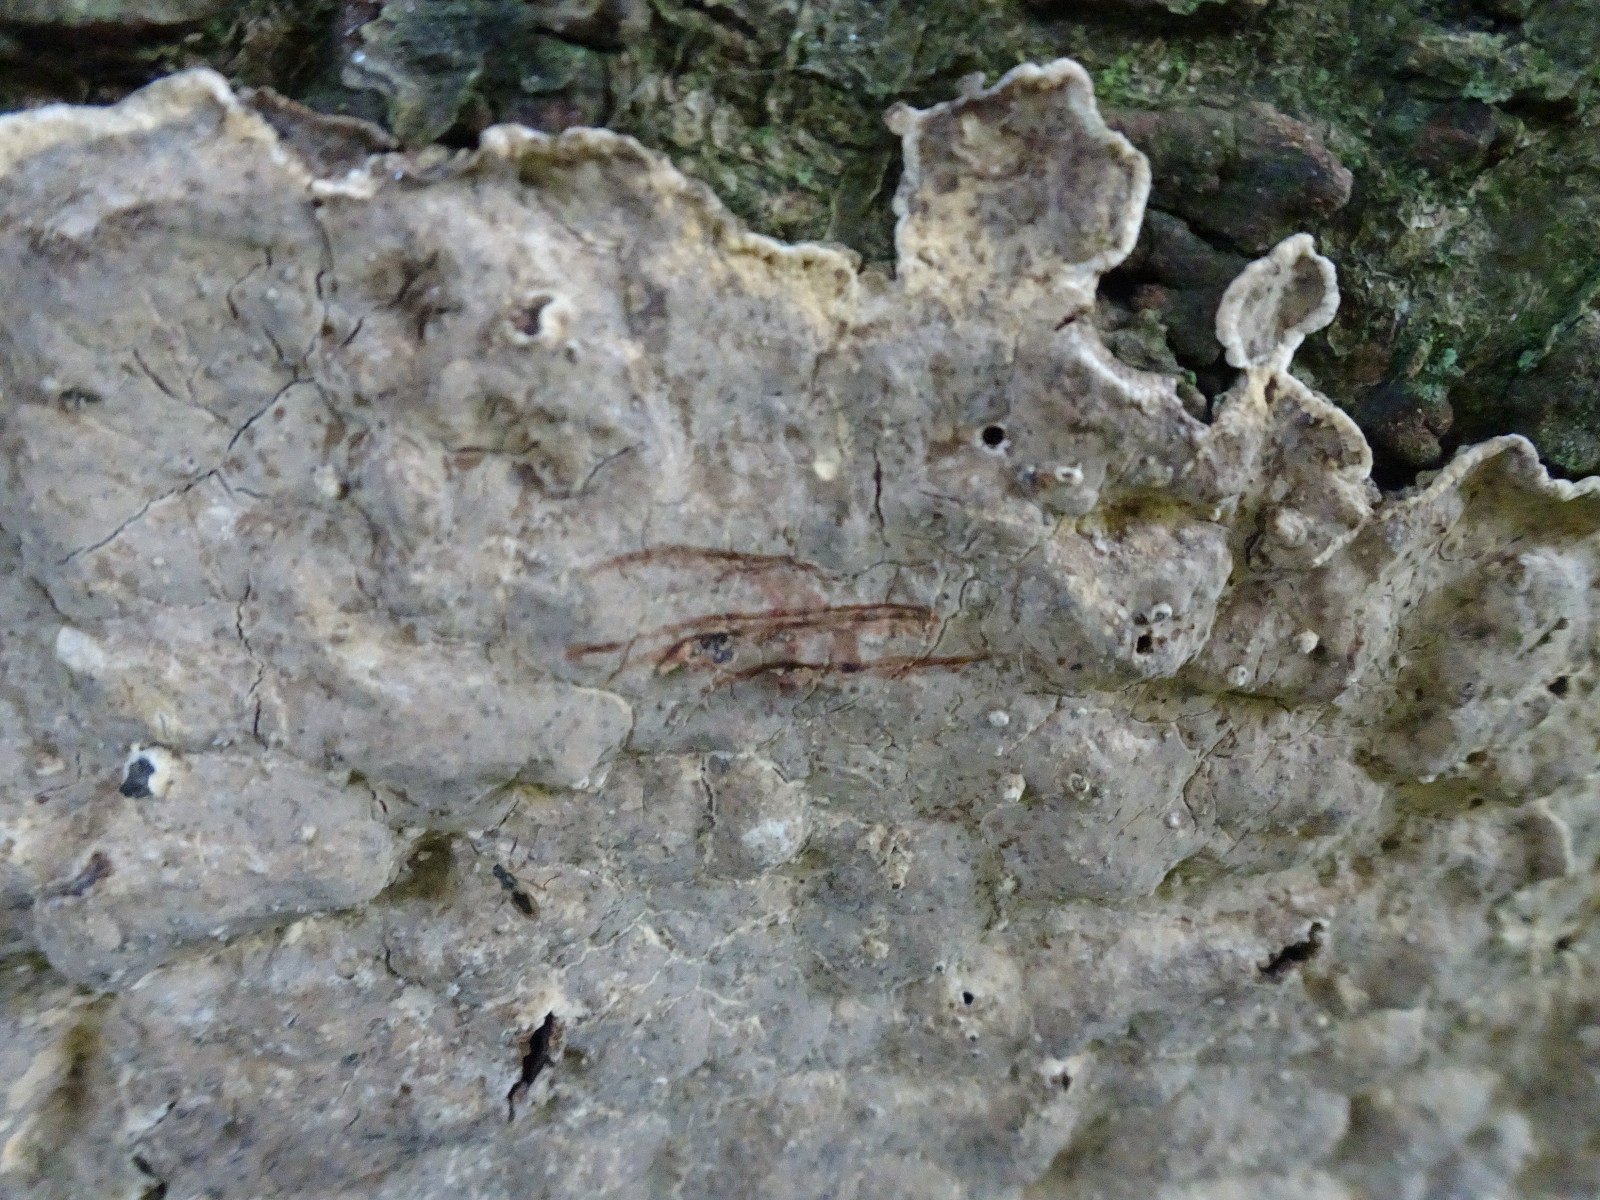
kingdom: Fungi
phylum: Basidiomycota
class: Agaricomycetes
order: Russulales
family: Stereaceae
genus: Stereum
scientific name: Stereum rugosum
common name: rynket lædersvamp
